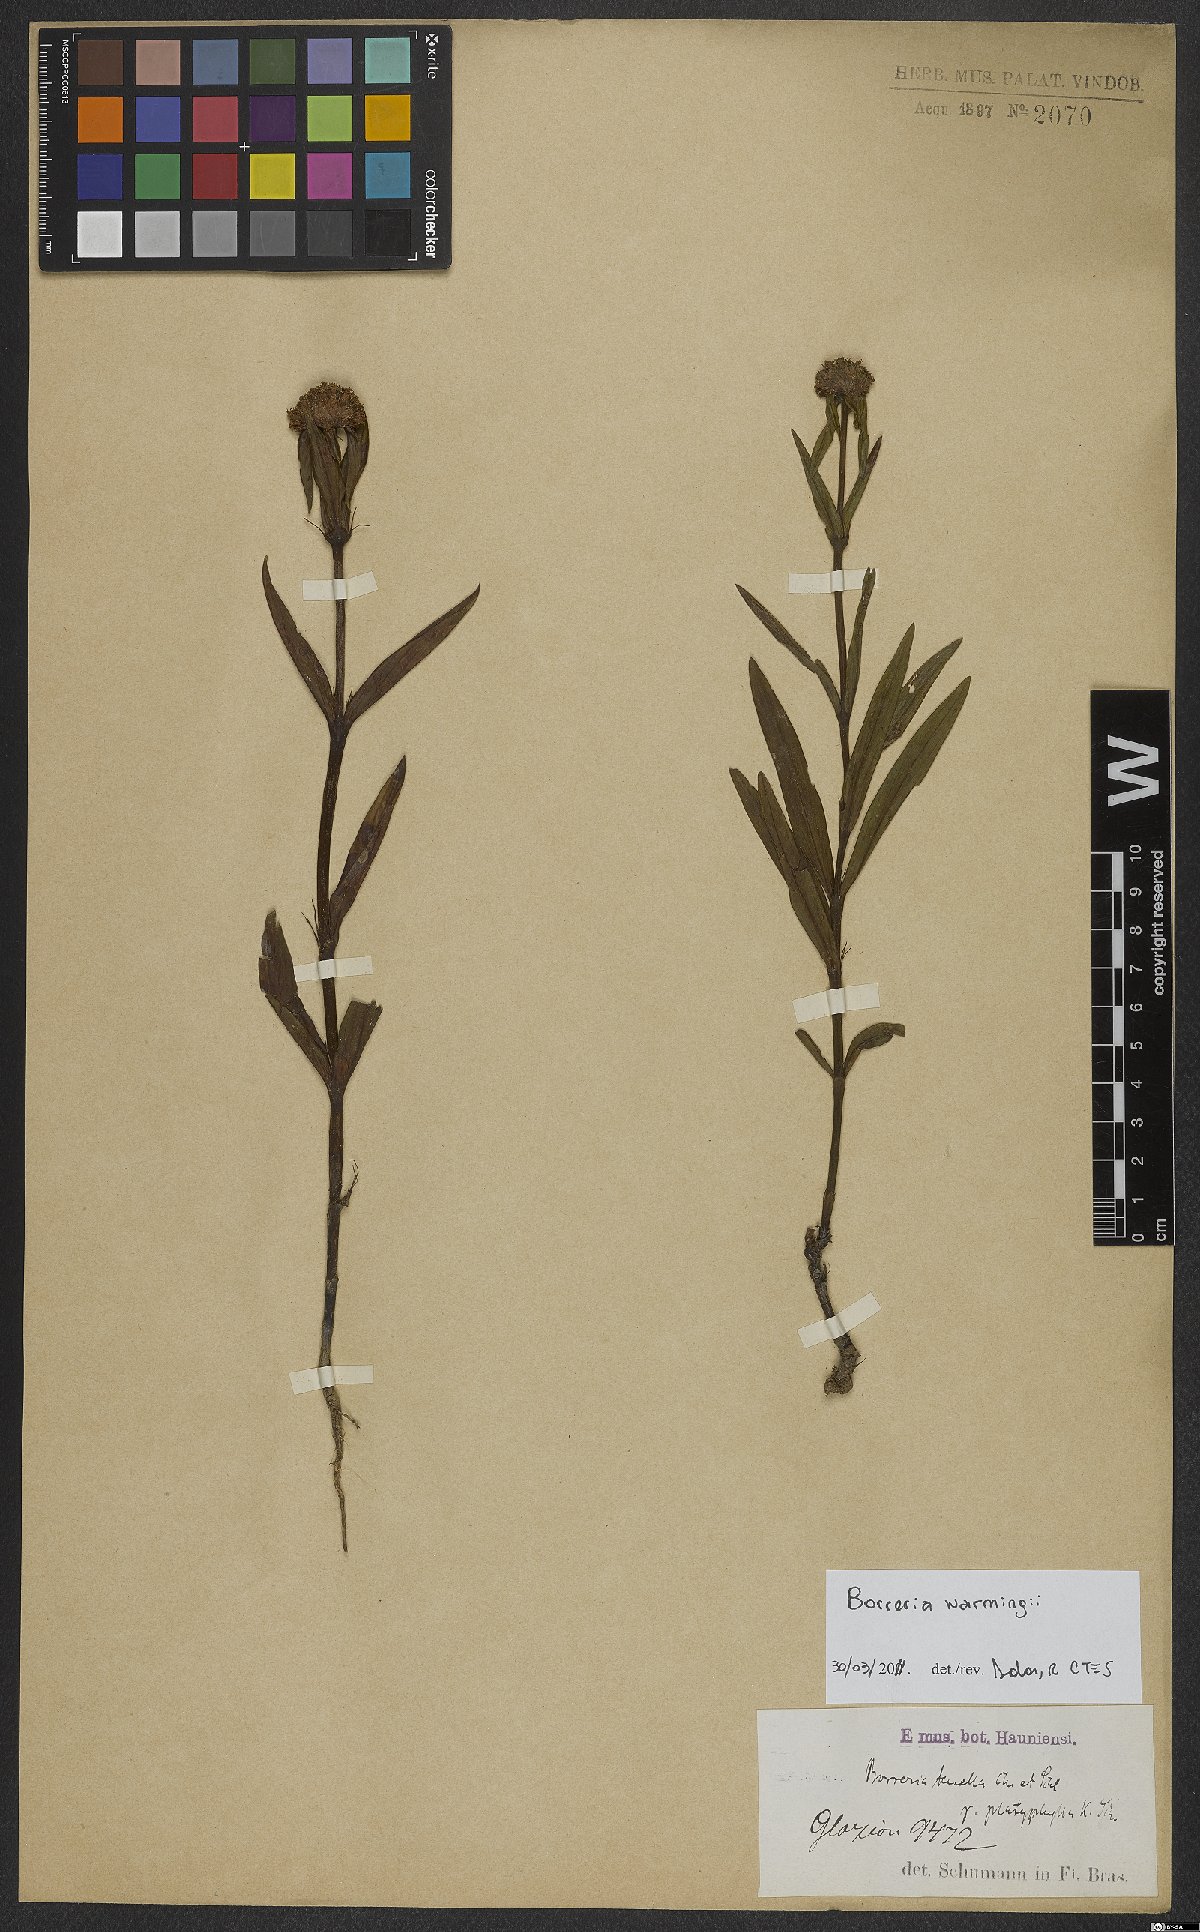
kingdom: Plantae
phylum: Tracheophyta
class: Magnoliopsida
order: Gentianales
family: Rubiaceae
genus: Spermacoce
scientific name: Spermacoce warmingii
